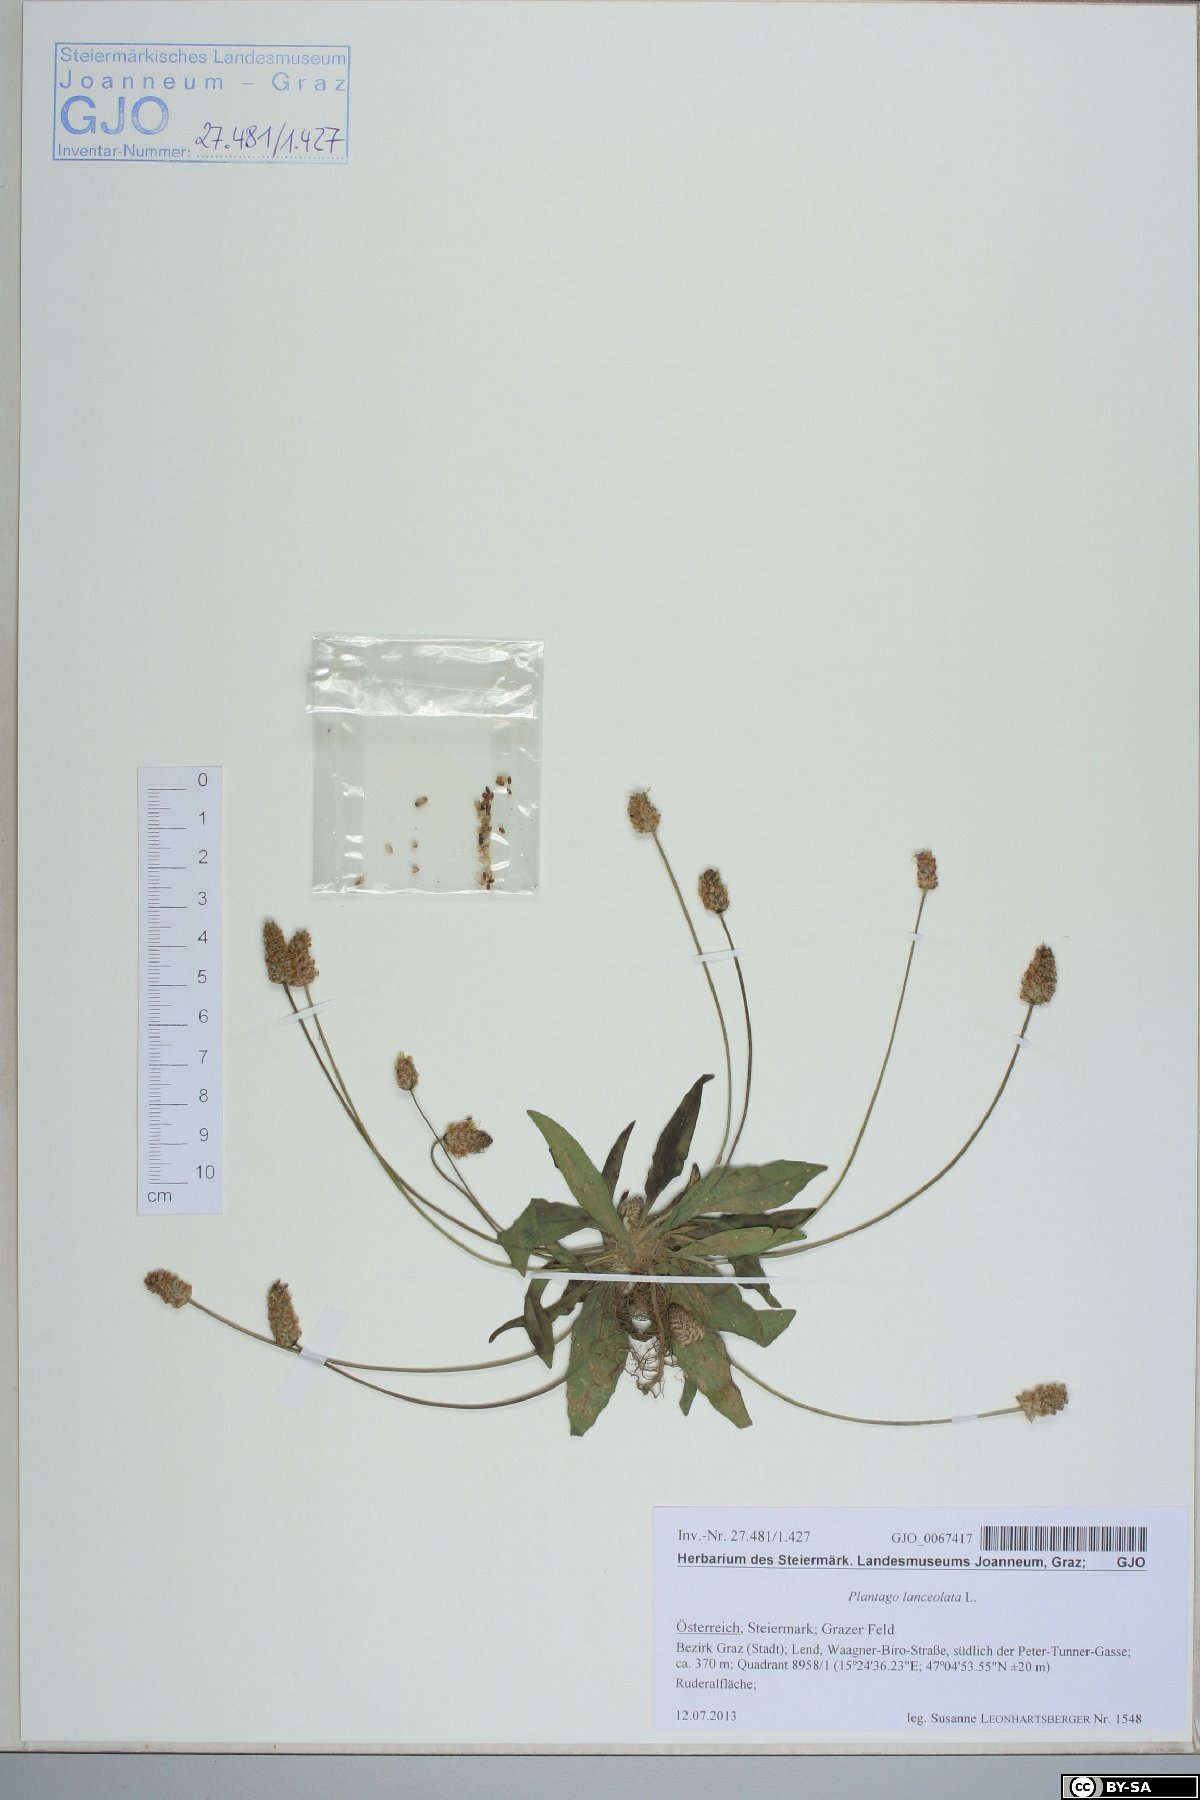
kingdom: Plantae
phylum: Tracheophyta
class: Magnoliopsida
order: Lamiales
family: Plantaginaceae
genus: Plantago
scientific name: Plantago lanceolata
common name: Ribwort plantain
